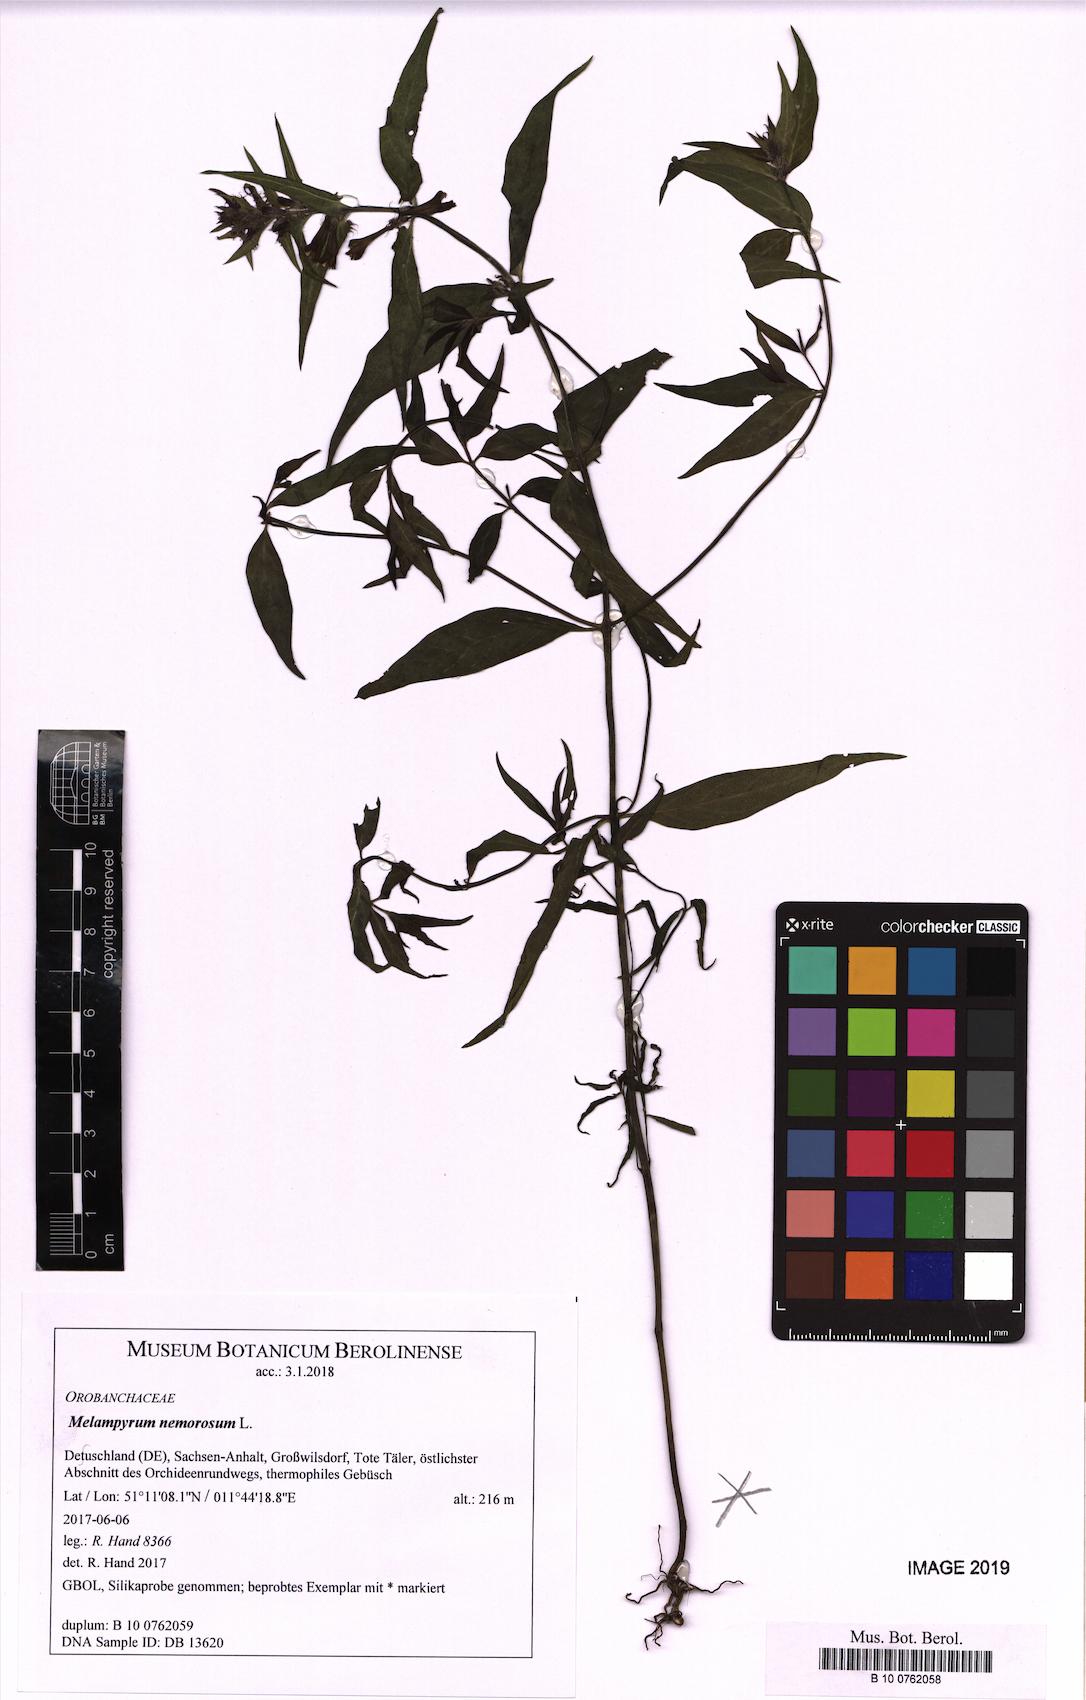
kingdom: Plantae
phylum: Tracheophyta
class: Magnoliopsida
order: Lamiales
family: Orobanchaceae
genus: Melampyrum
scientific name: Melampyrum nemorosum
